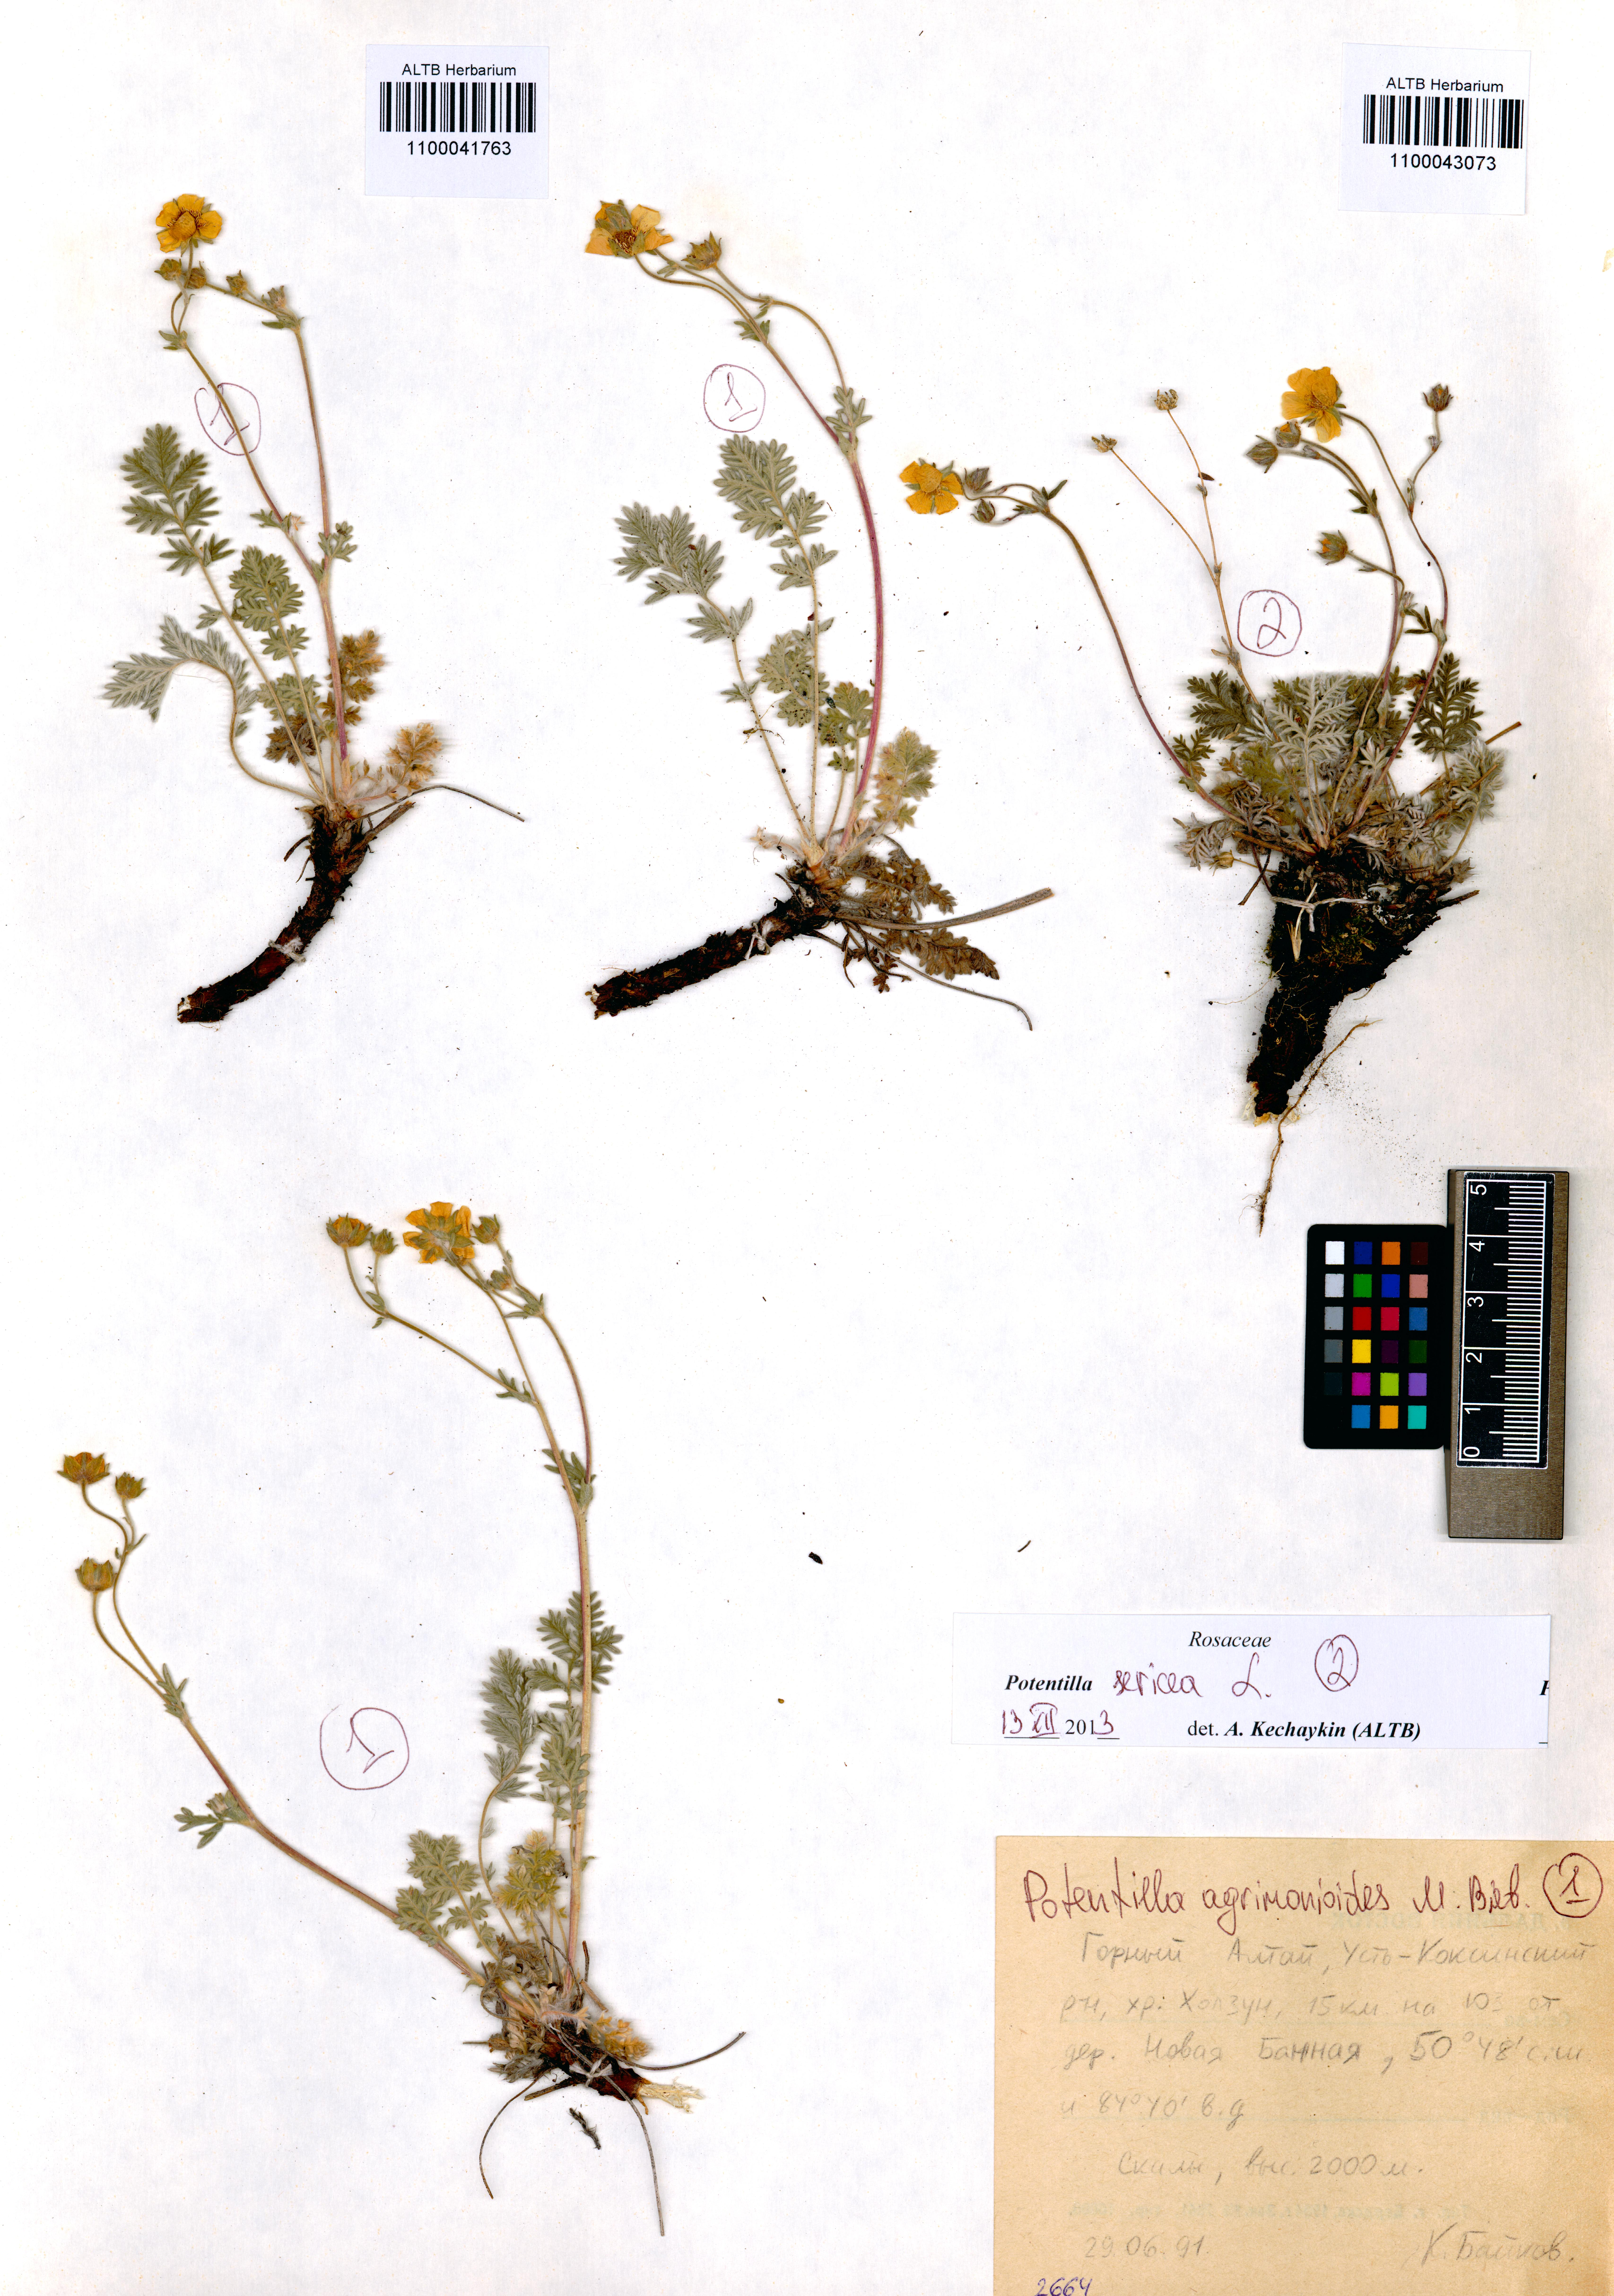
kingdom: Plantae
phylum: Tracheophyta
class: Magnoliopsida
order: Rosales
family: Rosaceae
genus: Potentilla
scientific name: Potentilla agrimonioides
